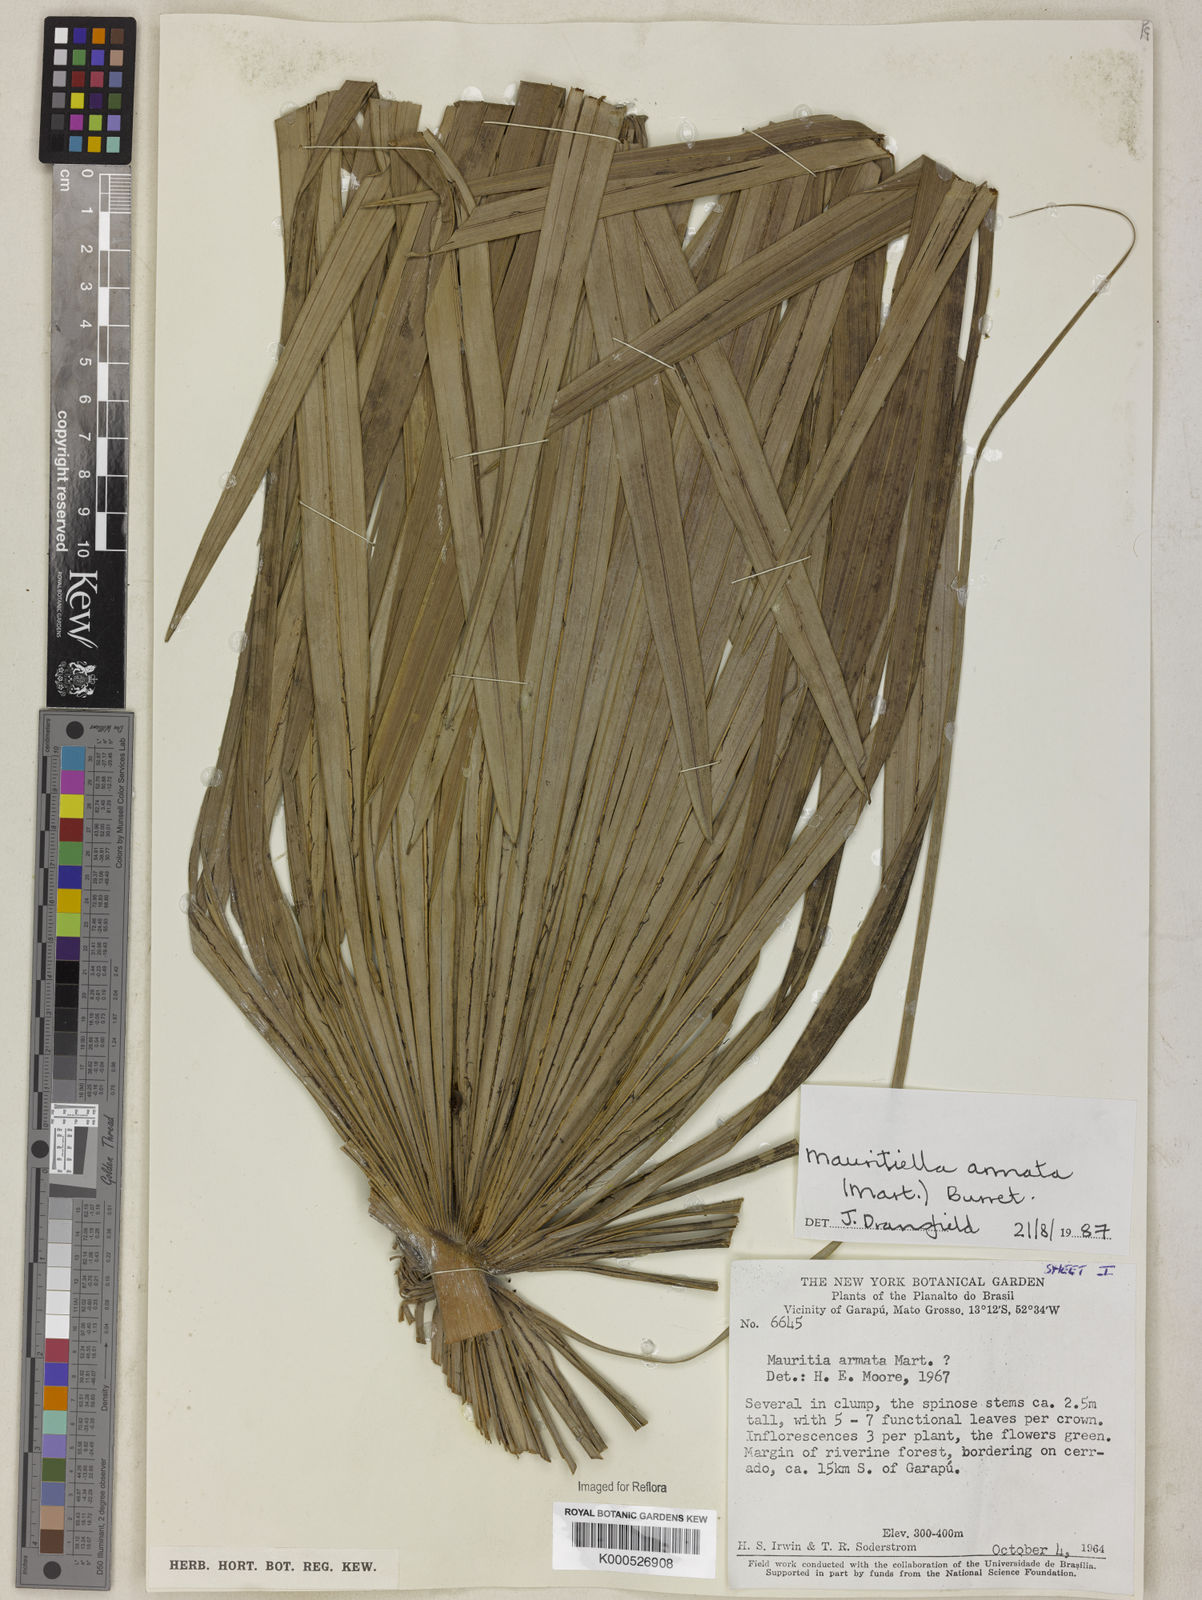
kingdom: Plantae
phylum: Tracheophyta
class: Liliopsida
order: Arecales
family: Arecaceae
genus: Mauritiella
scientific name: Mauritiella armata
